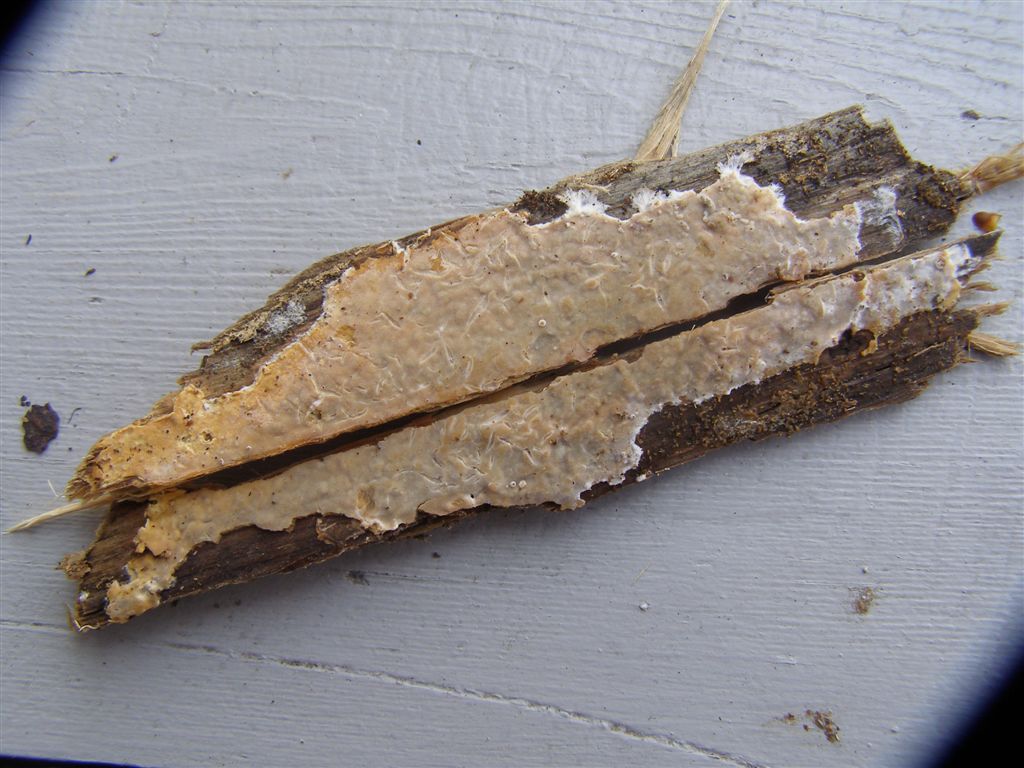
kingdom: Fungi
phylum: Basidiomycota
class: Agaricomycetes
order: Polyporales
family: Phanerochaetaceae
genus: Phanerochaete
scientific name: Phanerochaete velutina
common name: dunet randtråd
